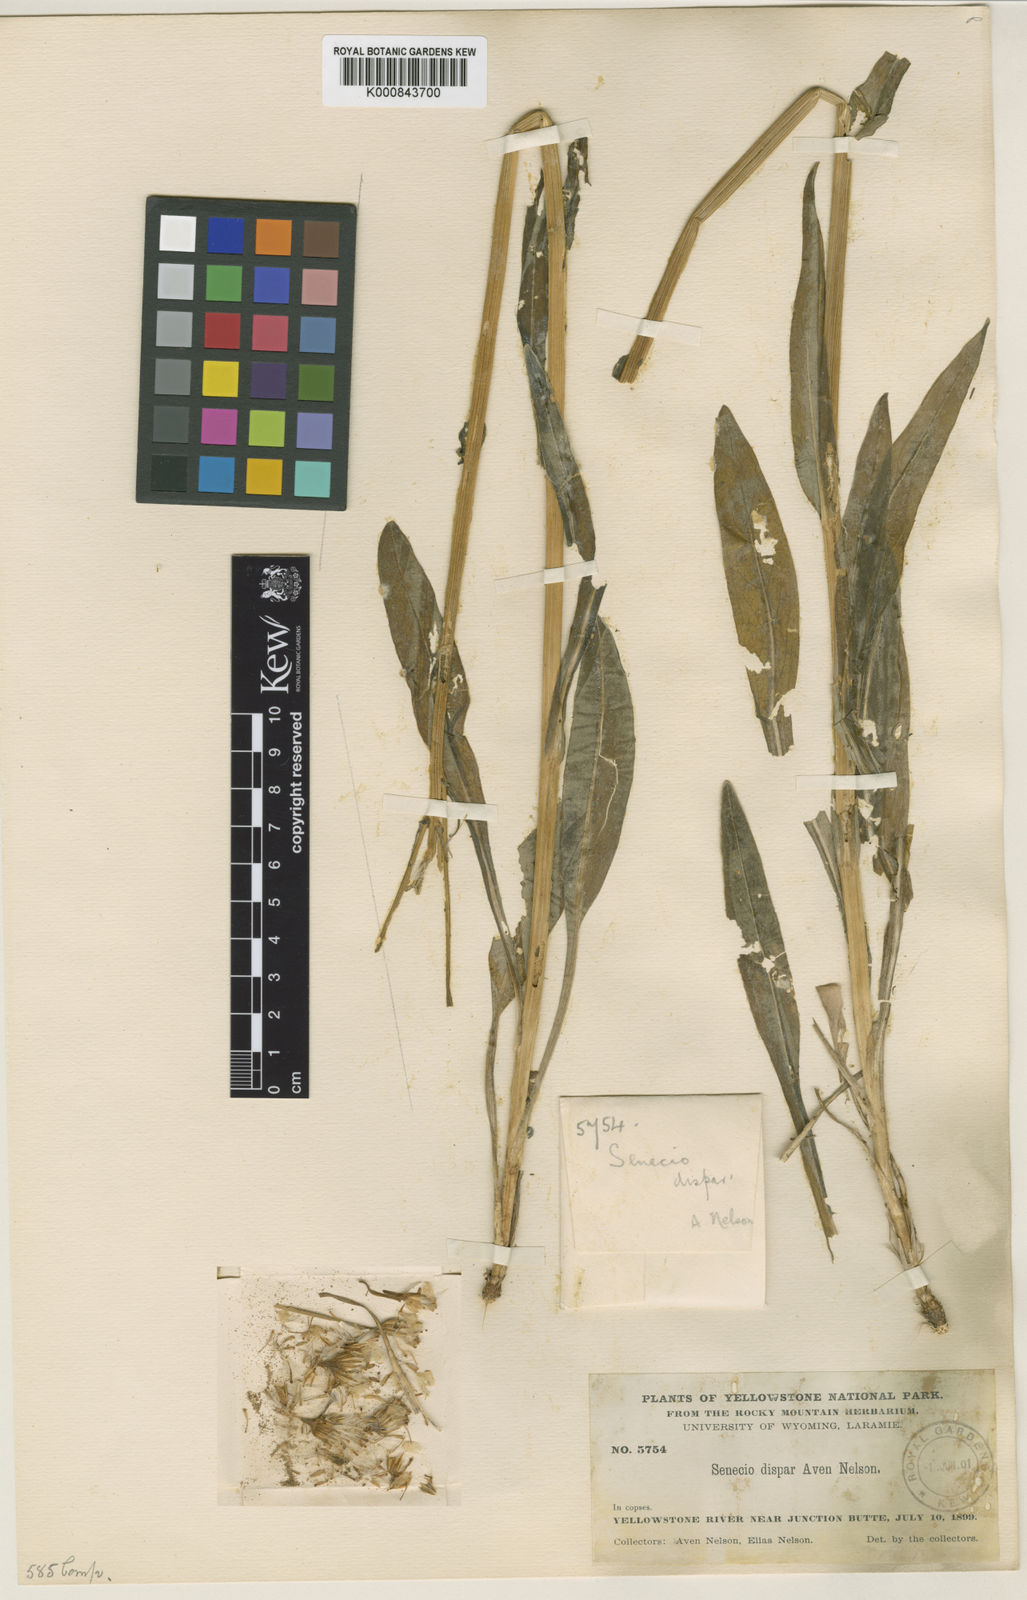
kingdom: Plantae
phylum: Tracheophyta
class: Magnoliopsida
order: Asterales
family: Asteraceae
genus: Senecio
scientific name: Senecio integerrimus
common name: Gaugeplant
